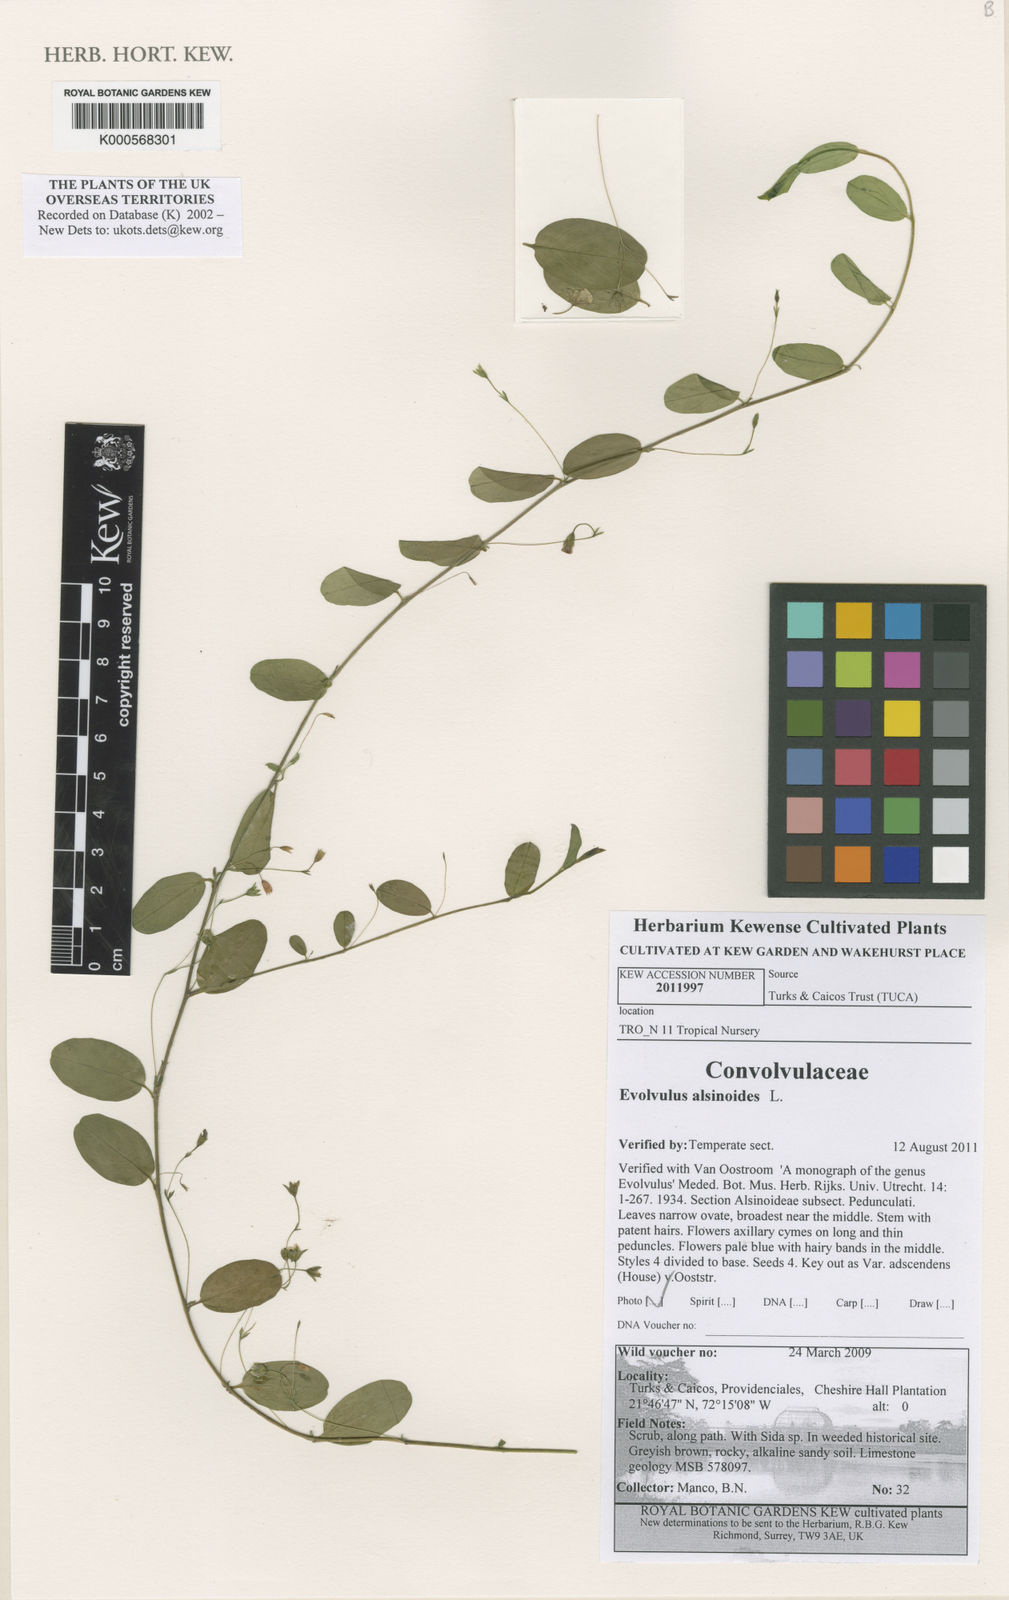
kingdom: Plantae
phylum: Tracheophyta
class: Magnoliopsida
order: Solanales
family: Solanaceae
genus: Solanum
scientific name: Solanum dulcamara
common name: Climbing nightshade
